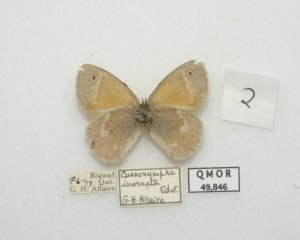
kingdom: Animalia
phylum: Arthropoda
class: Insecta
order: Lepidoptera
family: Nymphalidae
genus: Coenonympha
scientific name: Coenonympha tullia
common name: Large Heath
